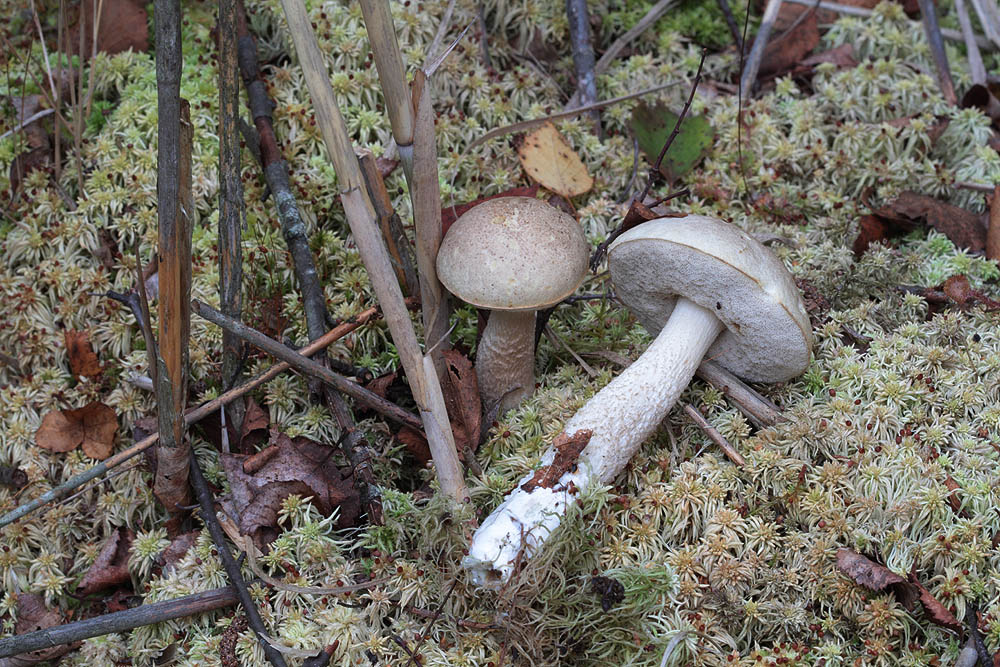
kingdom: Fungi
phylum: Basidiomycota
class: Agaricomycetes
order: Boletales
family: Boletaceae
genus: Leccinum
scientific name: Leccinum
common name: skælrørhat
